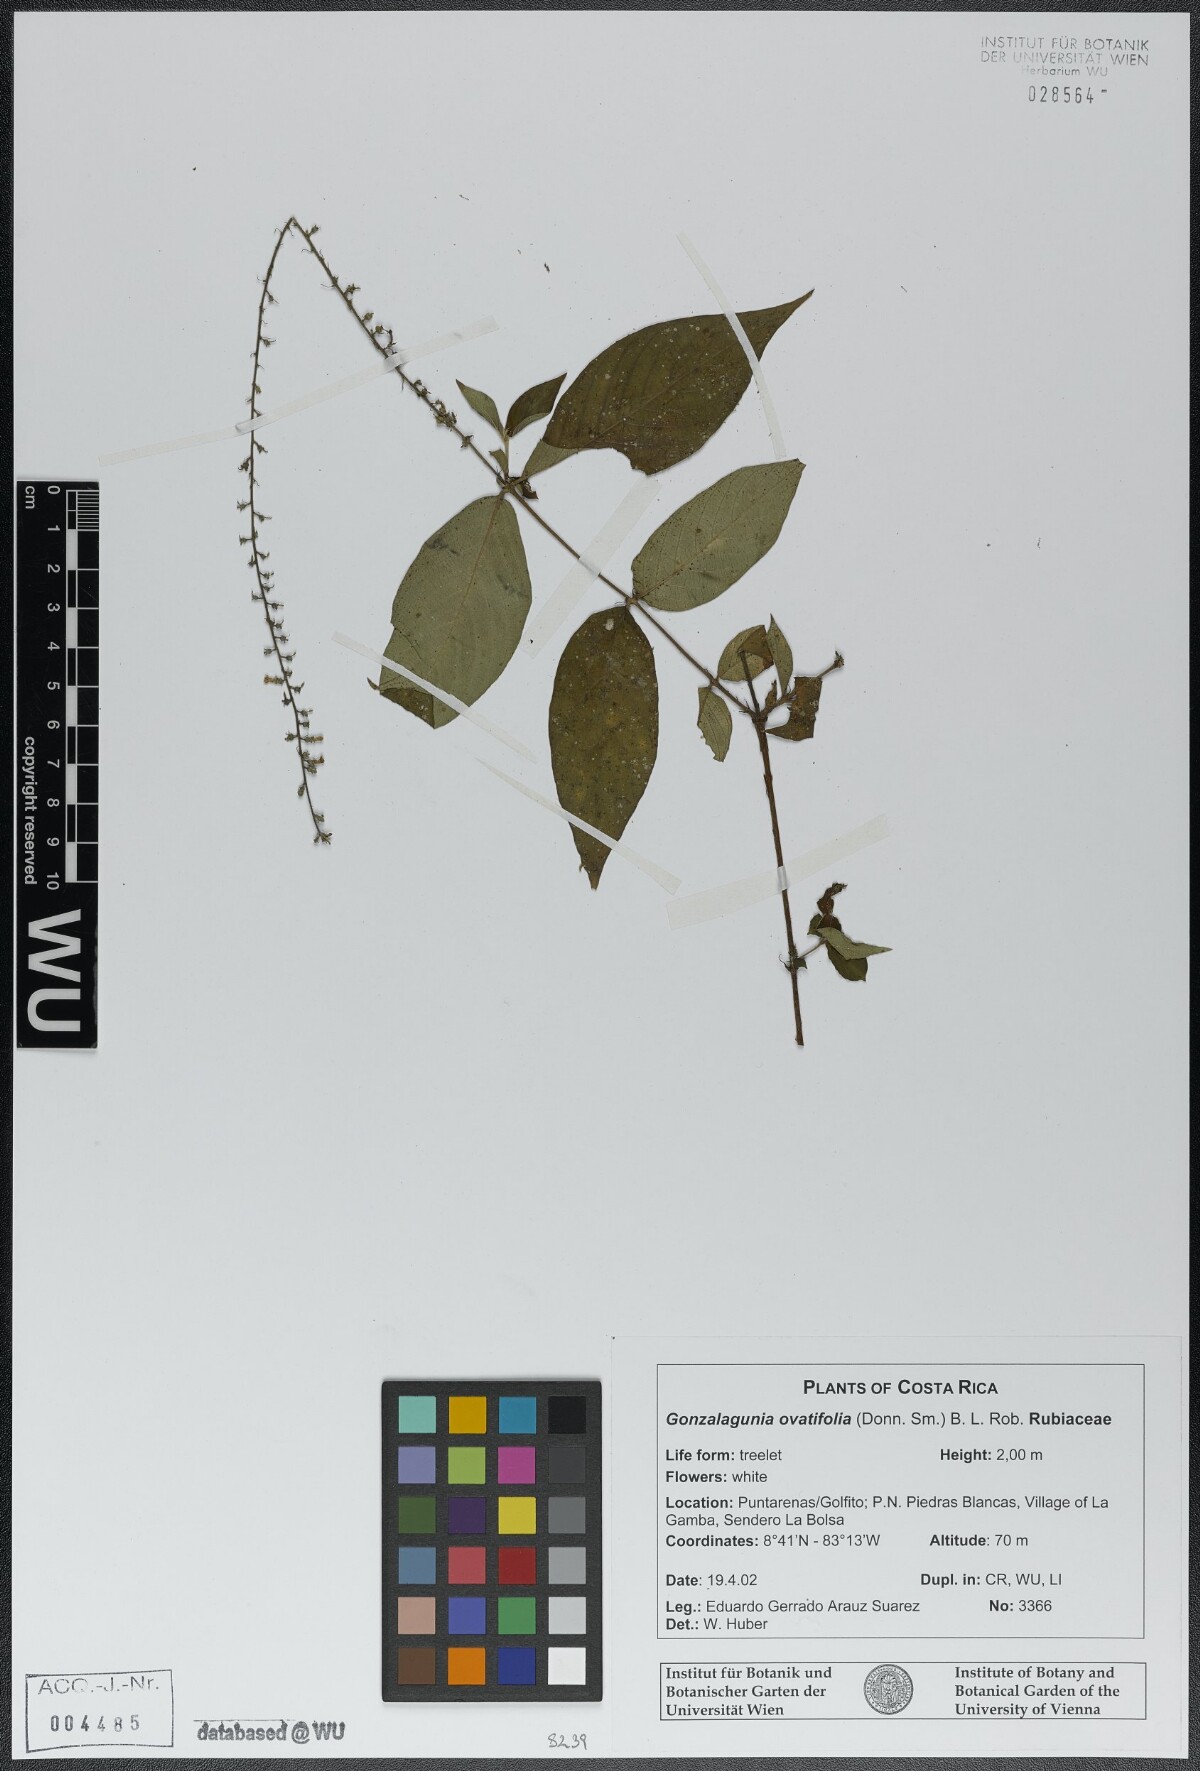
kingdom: Plantae
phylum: Tracheophyta
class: Magnoliopsida
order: Gentianales
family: Rubiaceae
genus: Gonzalagunia
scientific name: Gonzalagunia ovatifolia
